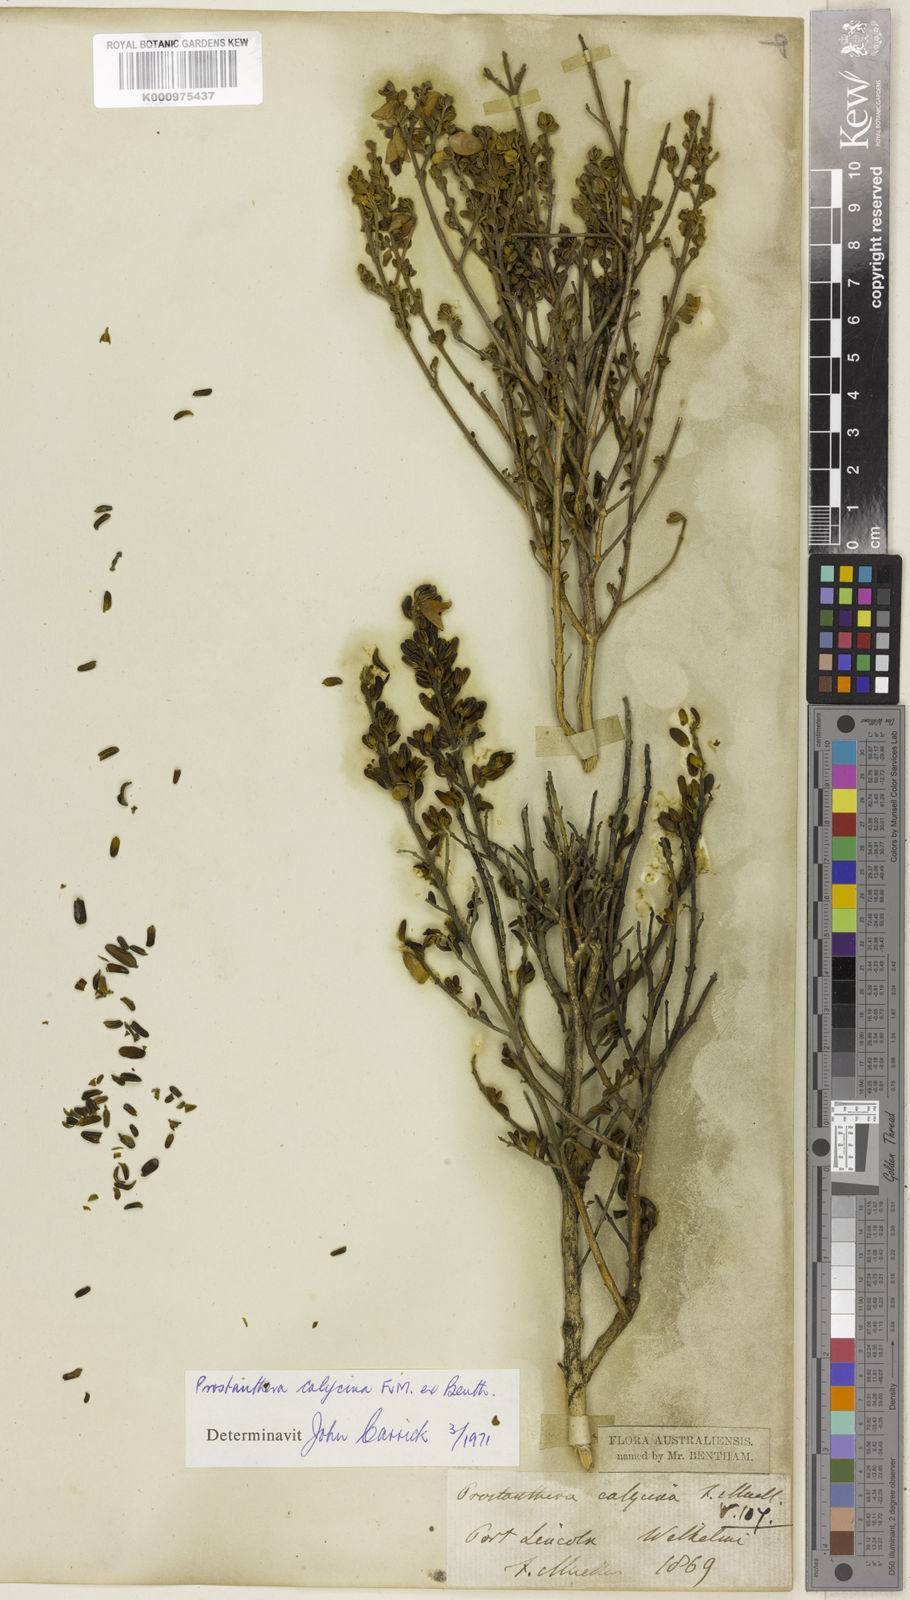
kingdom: Plantae
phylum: Tracheophyta
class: Magnoliopsida
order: Lamiales
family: Lamiaceae
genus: Prostanthera
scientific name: Prostanthera calycina
